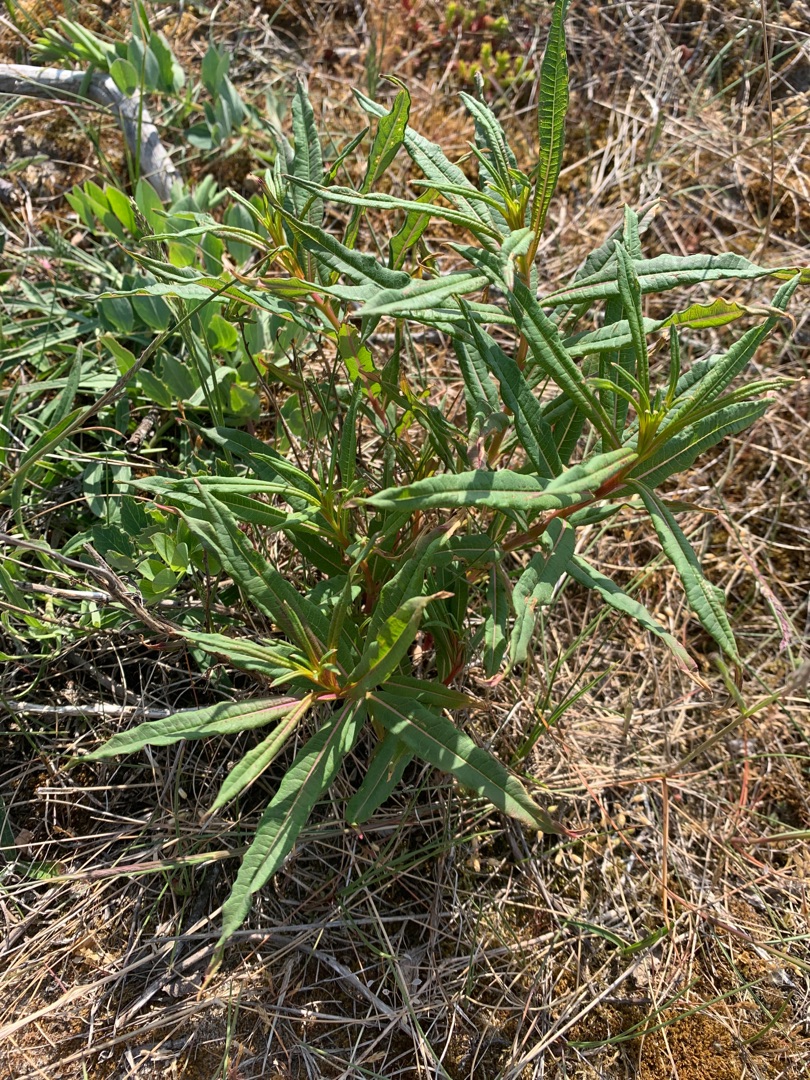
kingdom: Plantae
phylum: Tracheophyta
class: Magnoliopsida
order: Myrtales
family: Onagraceae
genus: Chamaenerion
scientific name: Chamaenerion angustifolium
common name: Gederams
